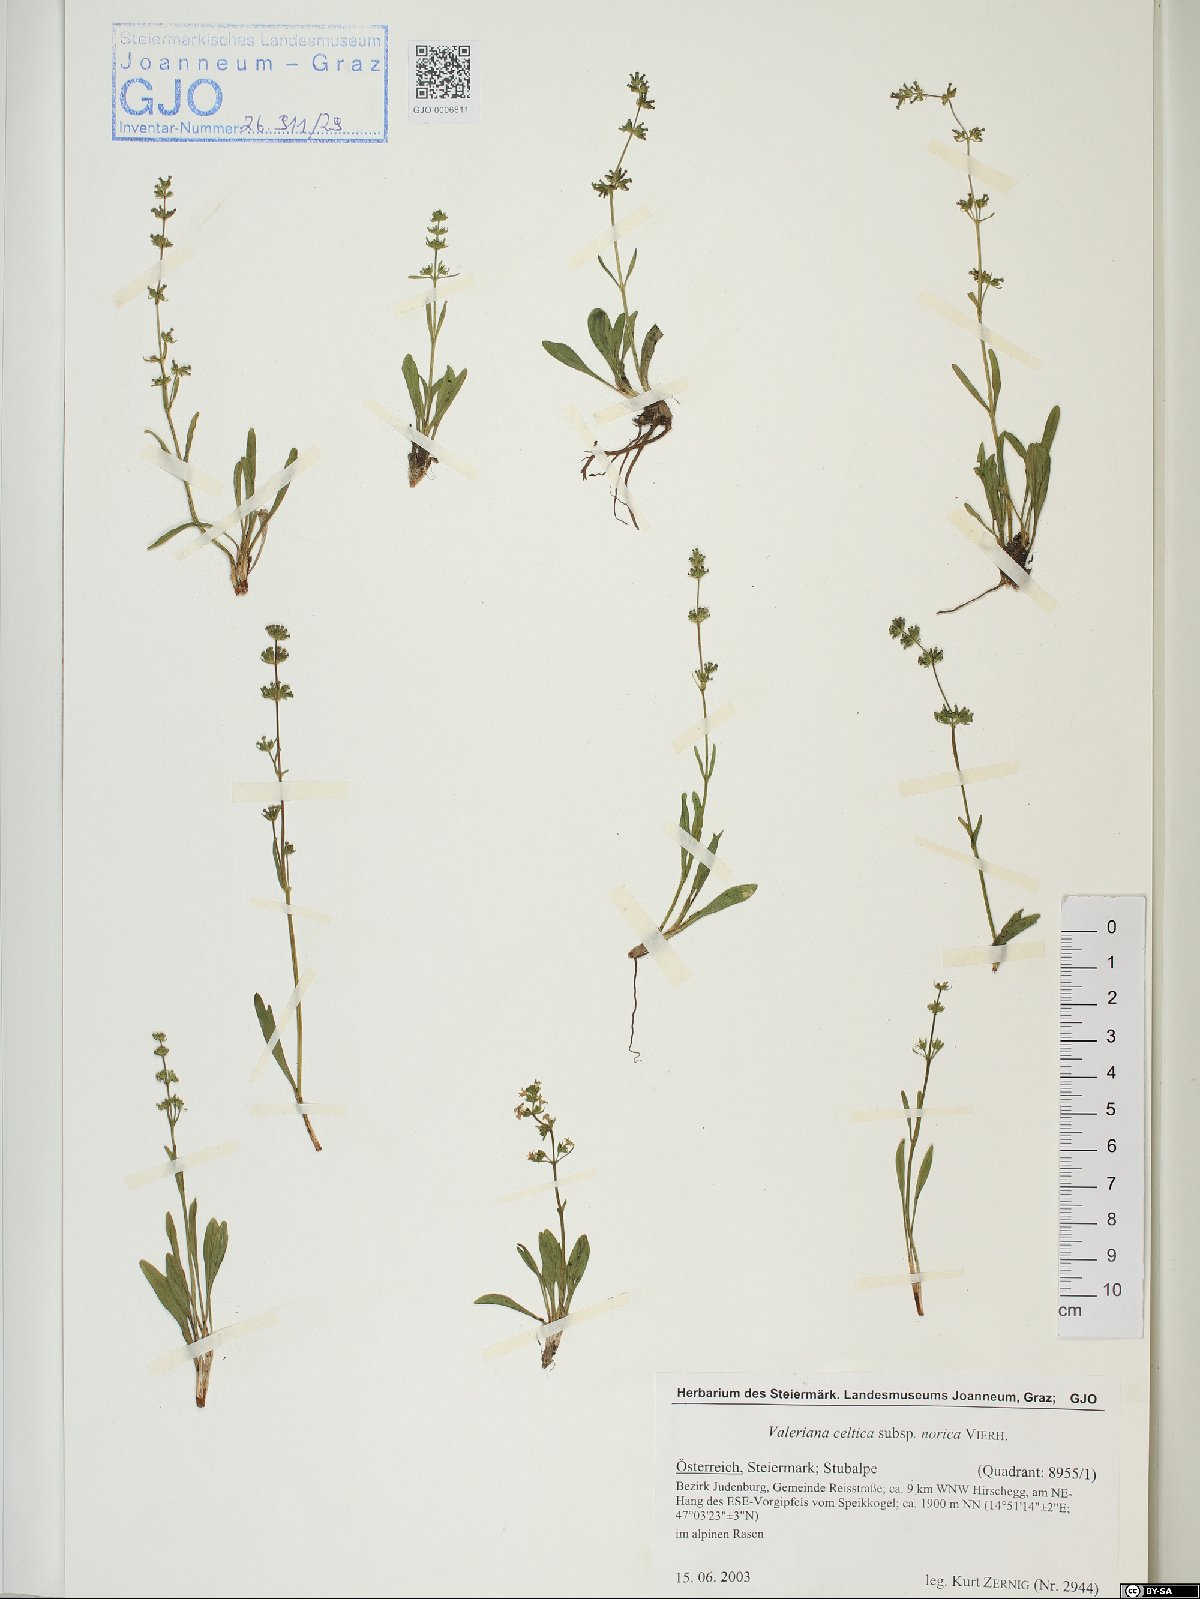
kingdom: Plantae
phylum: Tracheophyta
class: Magnoliopsida
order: Dipsacales
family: Caprifoliaceae
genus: Valeriana
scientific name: Valeriana celtica
